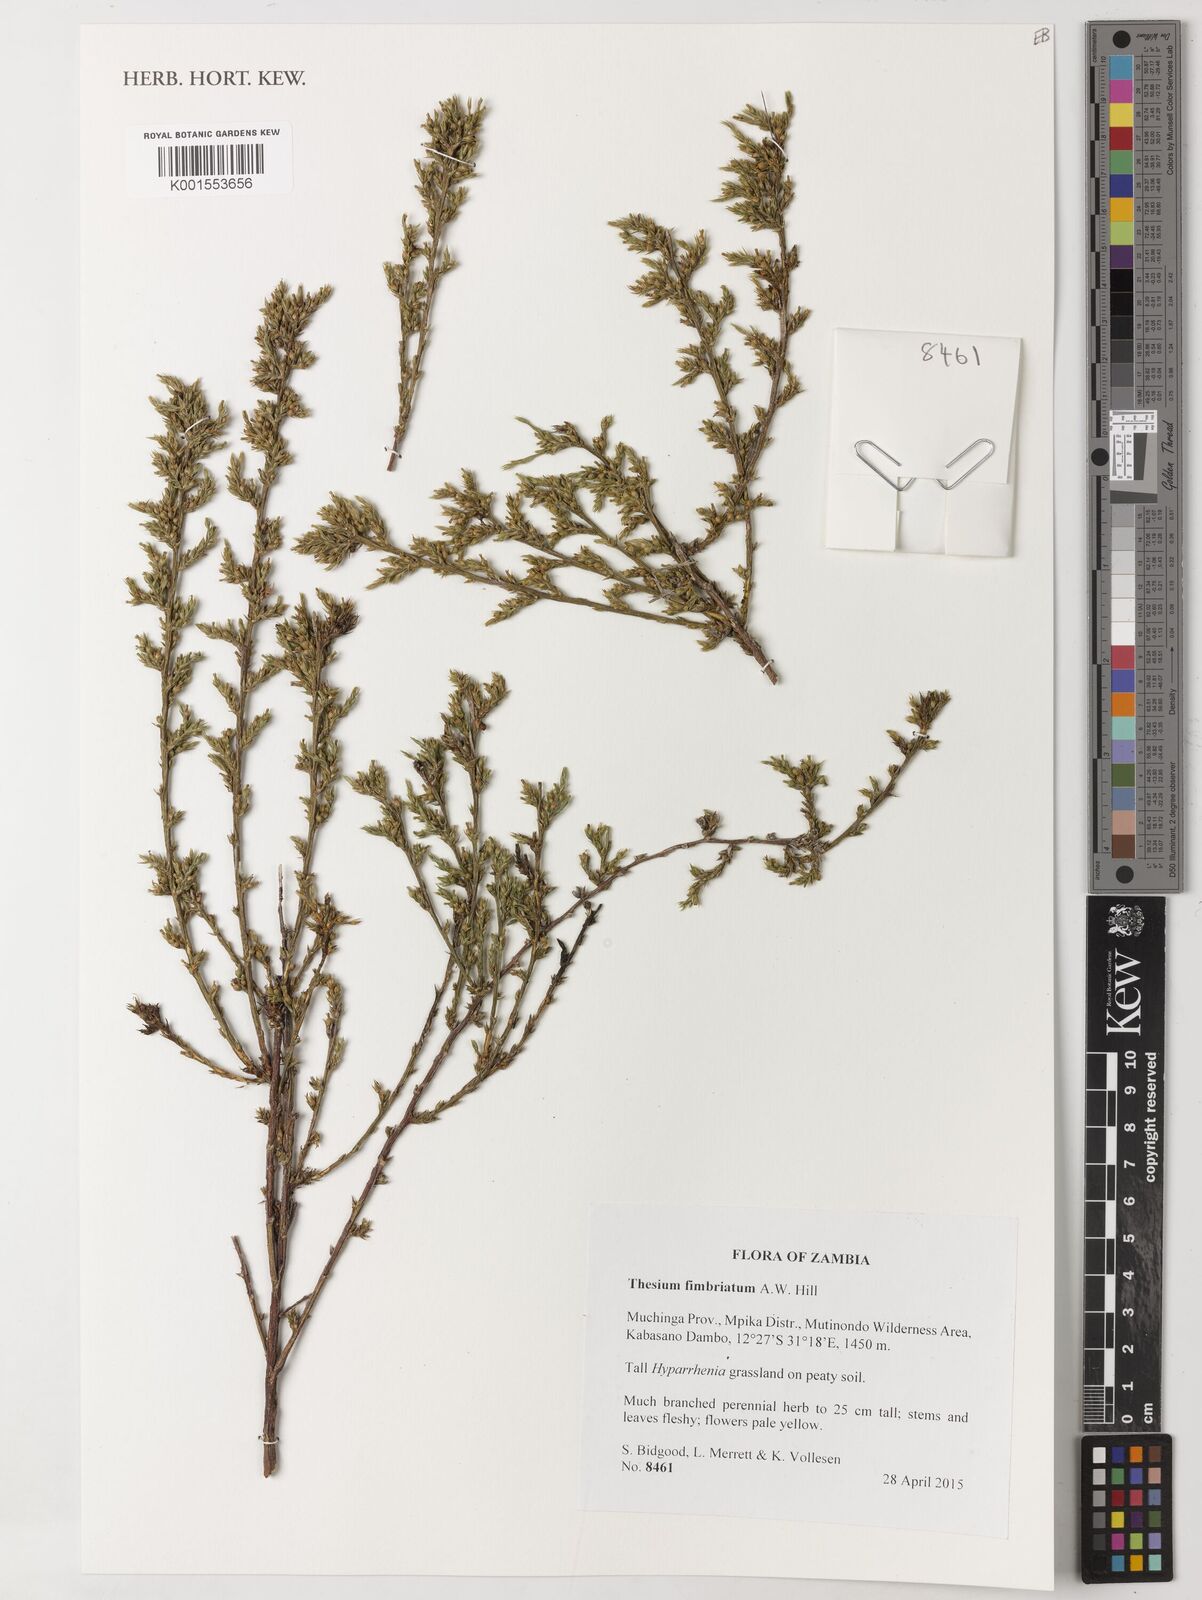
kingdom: Plantae
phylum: Tracheophyta
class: Magnoliopsida
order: Santalales
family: Thesiaceae
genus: Thesium
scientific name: Thesium fimbriatum
